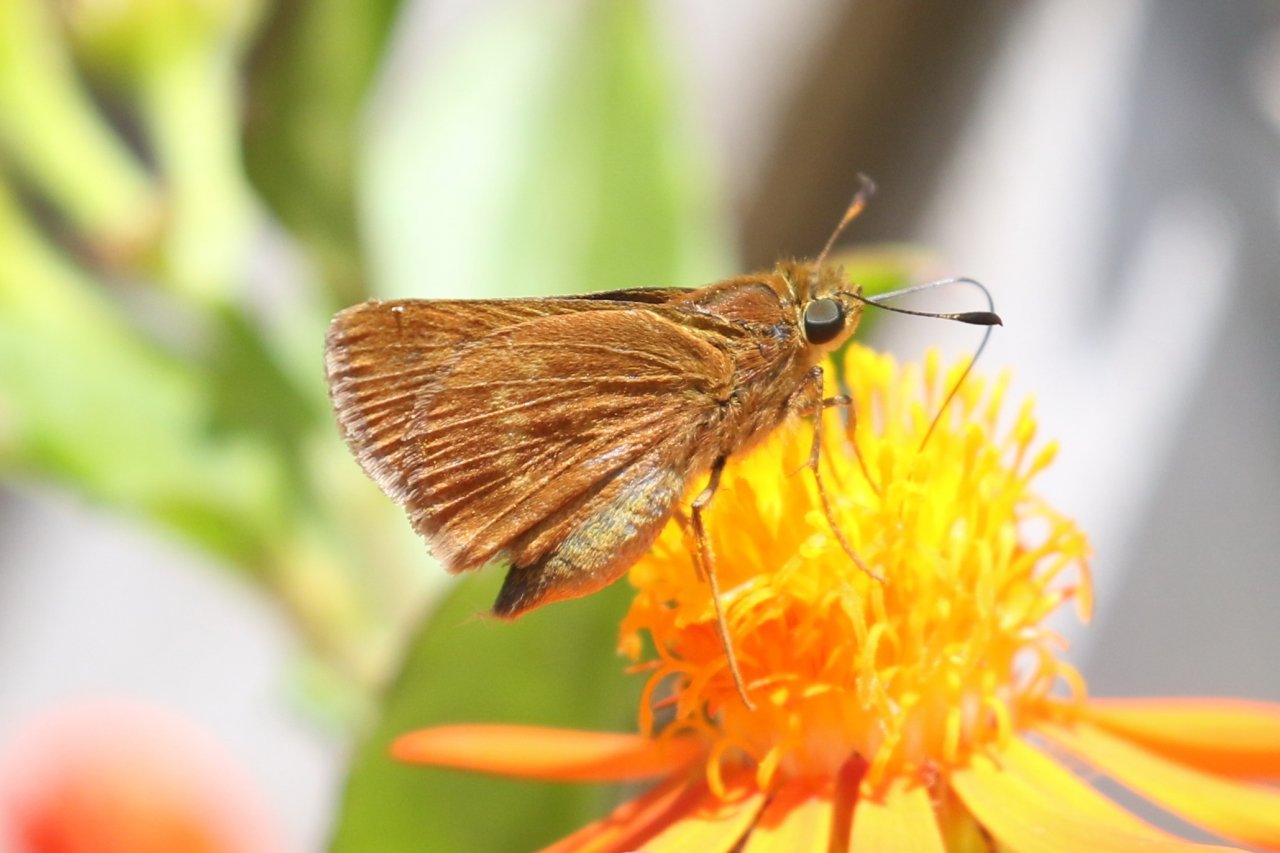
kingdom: Animalia
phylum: Arthropoda
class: Insecta
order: Lepidoptera
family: Hesperiidae
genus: Wallengrenia
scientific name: Wallengrenia otho
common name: Southern Broken-Dash
